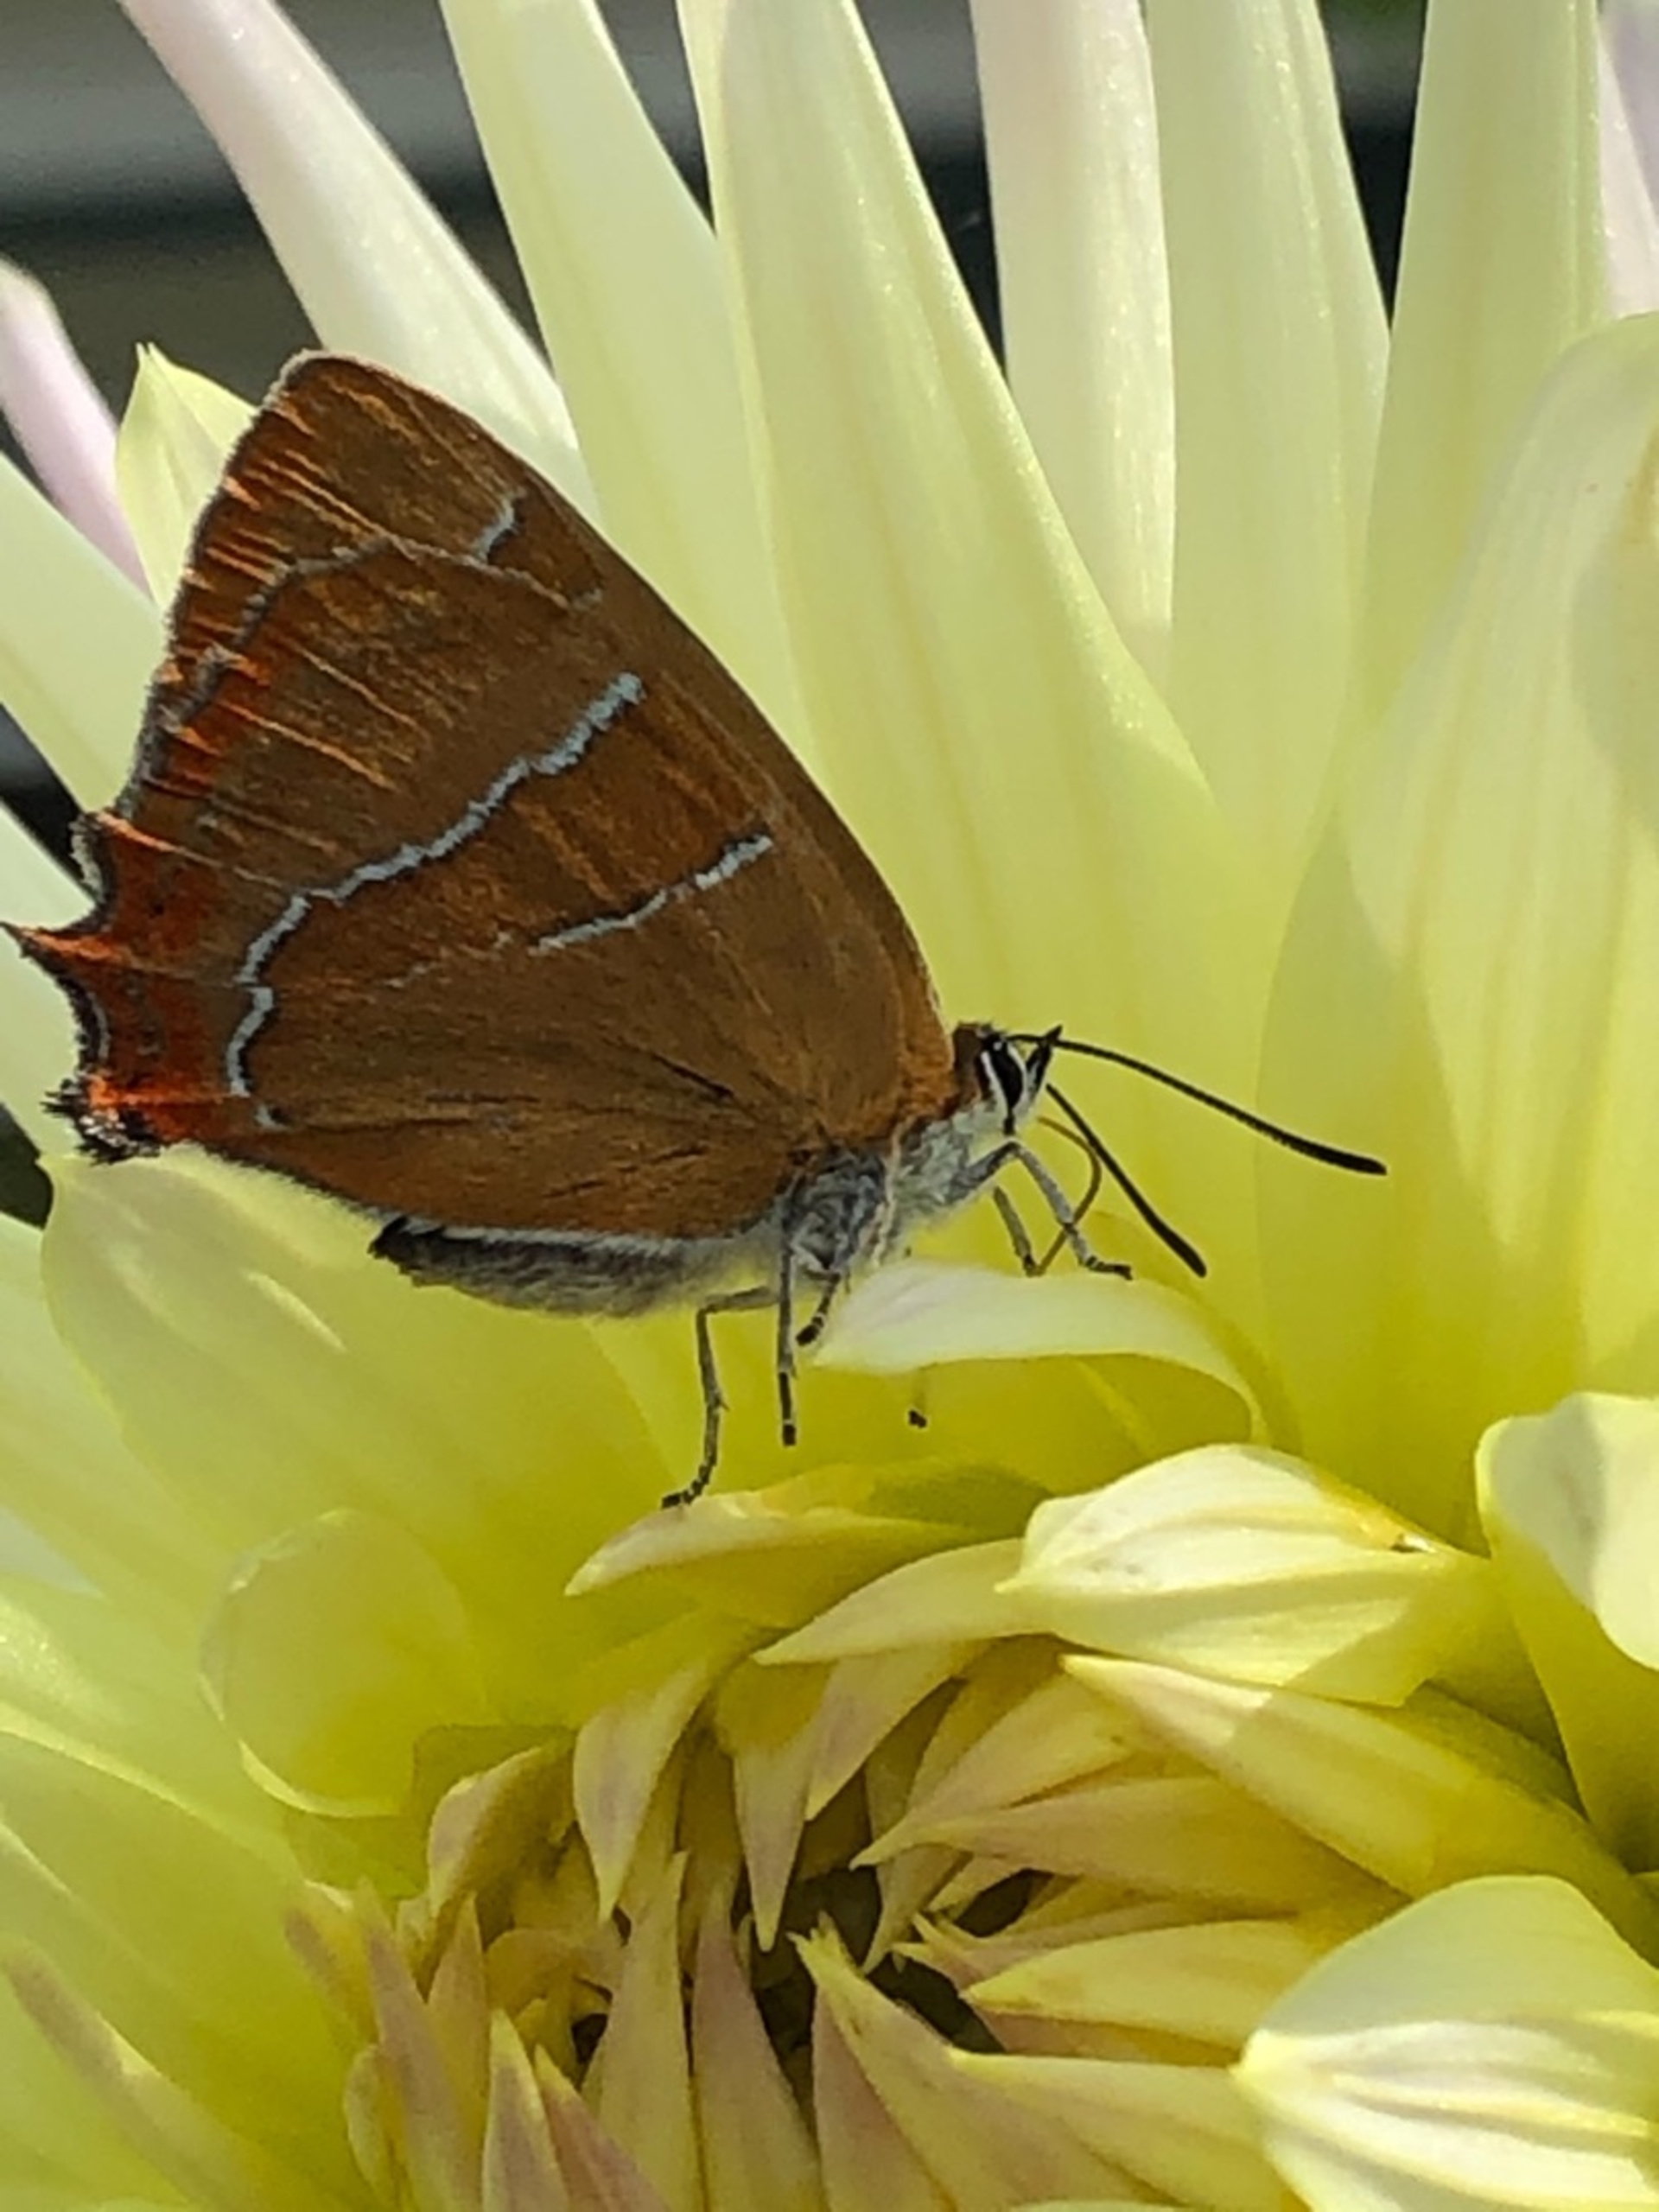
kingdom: Animalia
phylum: Arthropoda
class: Insecta
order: Lepidoptera
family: Lycaenidae
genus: Thecla
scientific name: Thecla betulae
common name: Guldhale
